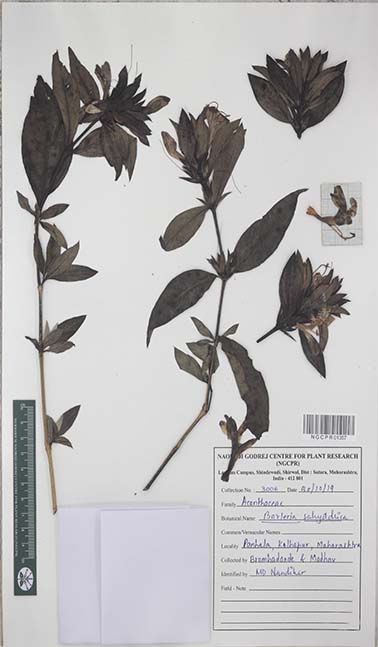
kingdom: Plantae
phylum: Tracheophyta
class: Magnoliopsida
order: Lamiales
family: Acanthaceae
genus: Barleria
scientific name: Barleria sahyadrica
